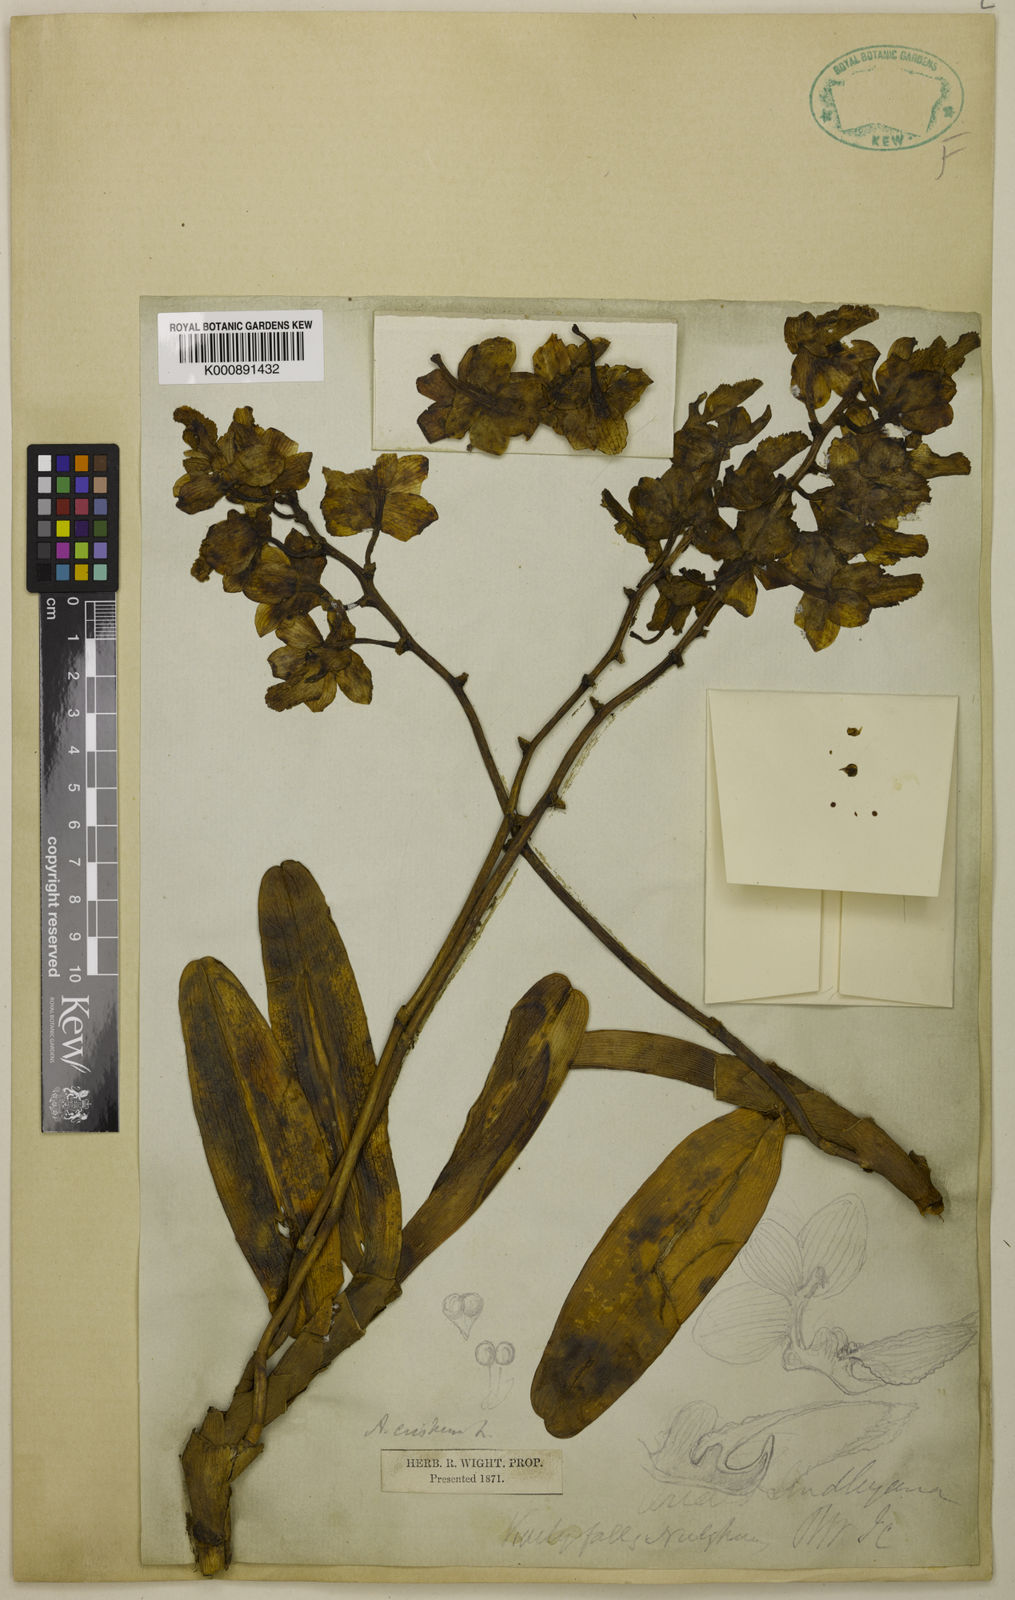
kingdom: Plantae
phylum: Tracheophyta
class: Liliopsida
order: Asparagales
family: Orchidaceae
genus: Aerides
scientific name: Aerides crispa
